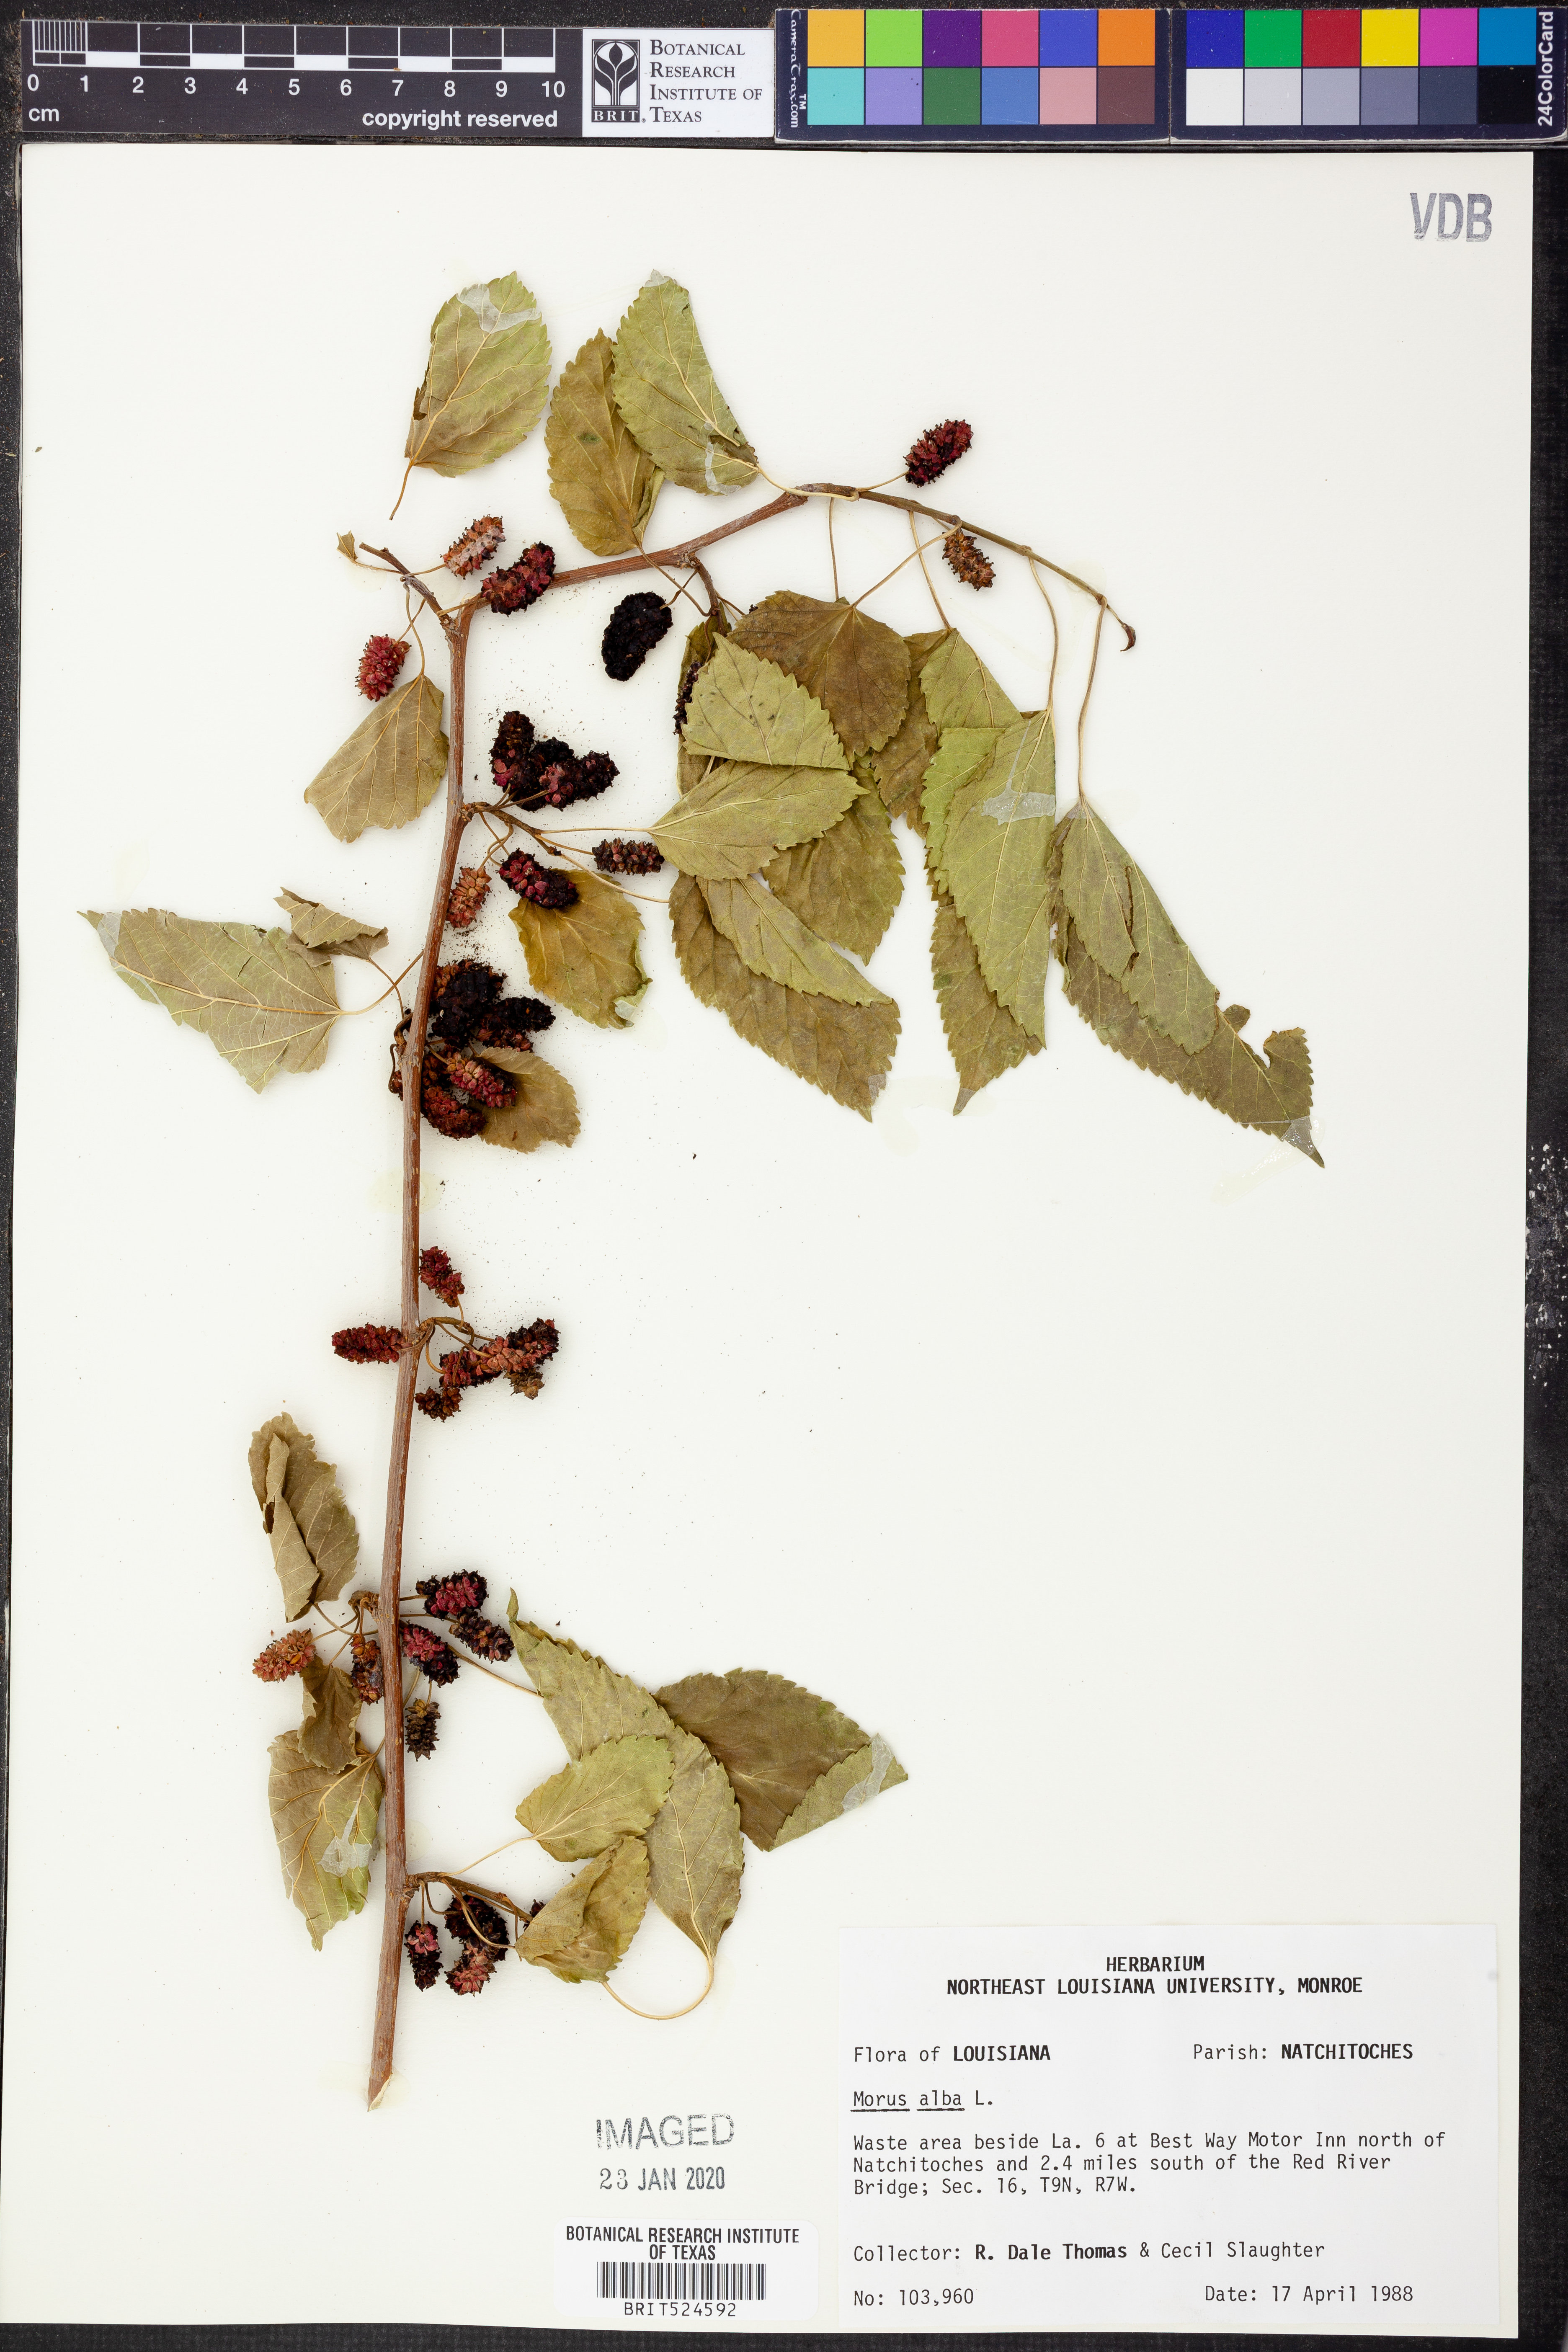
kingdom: Plantae
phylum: Tracheophyta
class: Magnoliopsida
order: Rosales
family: Moraceae
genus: Morus
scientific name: Morus alba
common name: White mulberry
